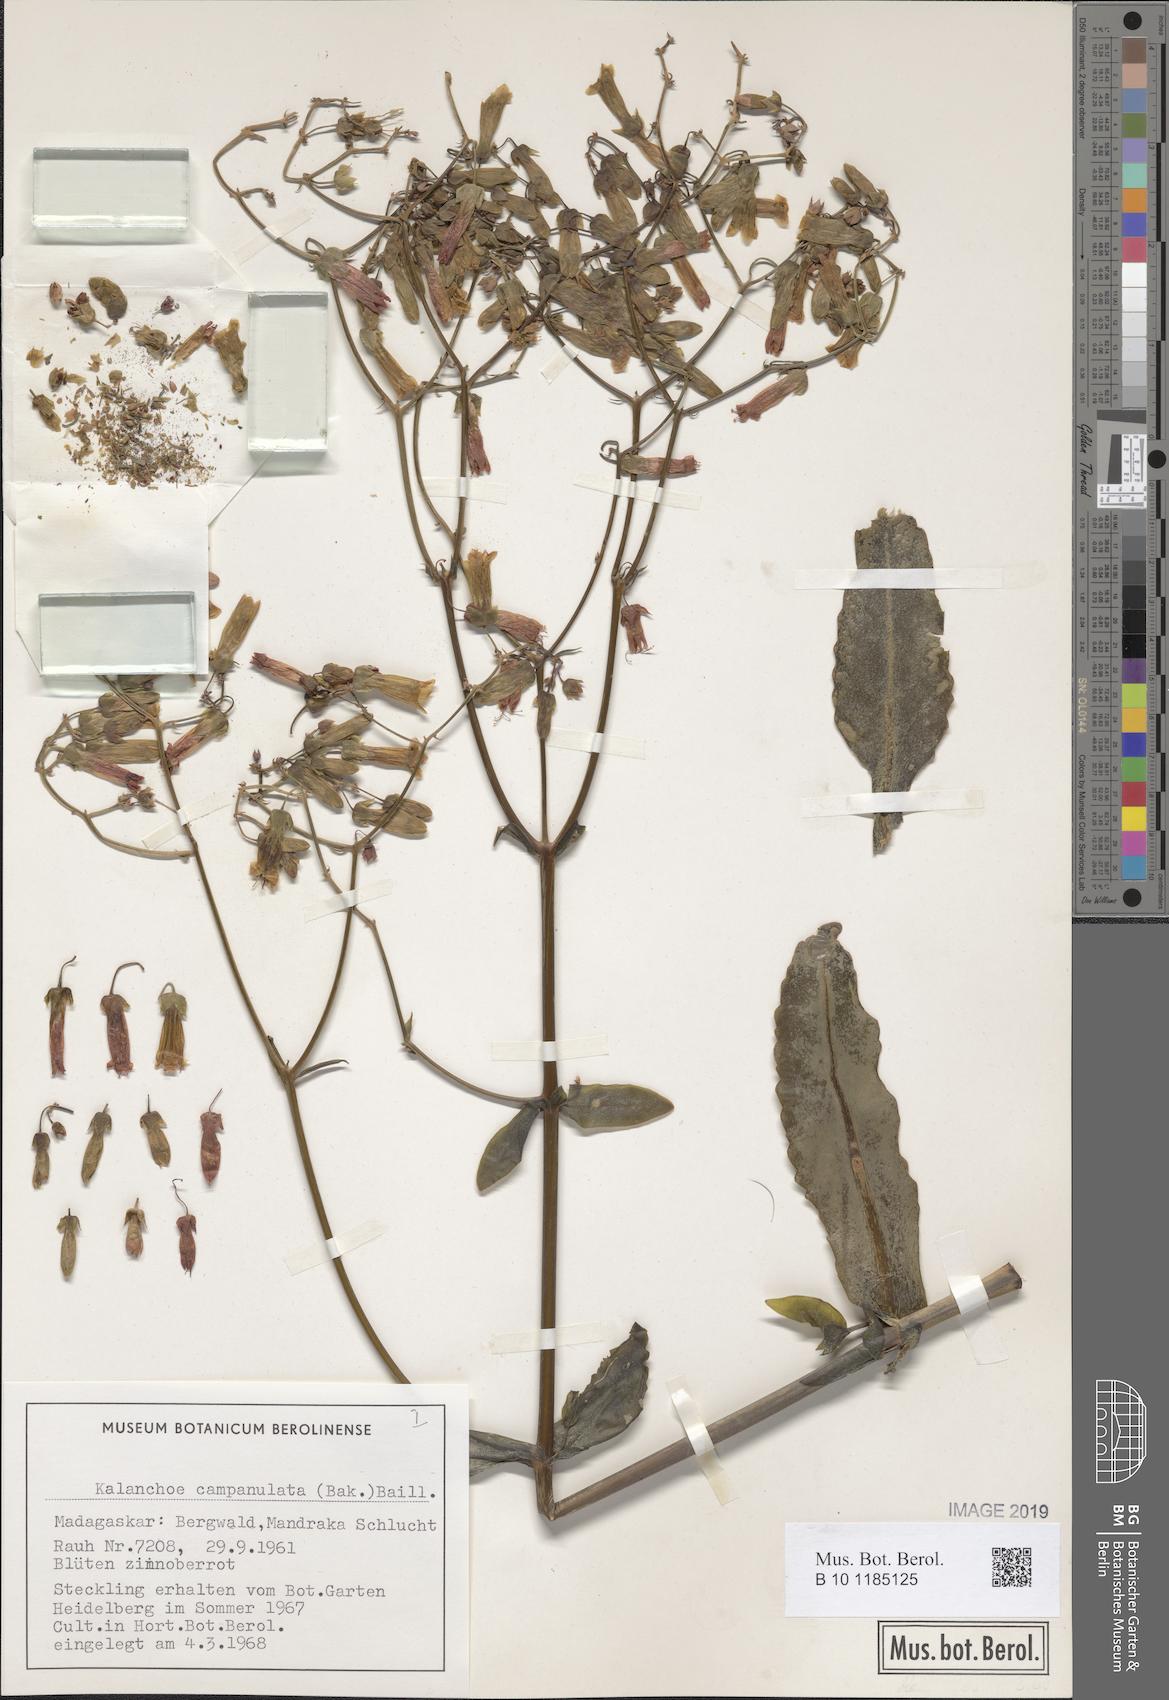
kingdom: Plantae
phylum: Tracheophyta
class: Magnoliopsida
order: Saxifragales
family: Crassulaceae
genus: Kalanchoe
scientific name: Kalanchoe campanulata
